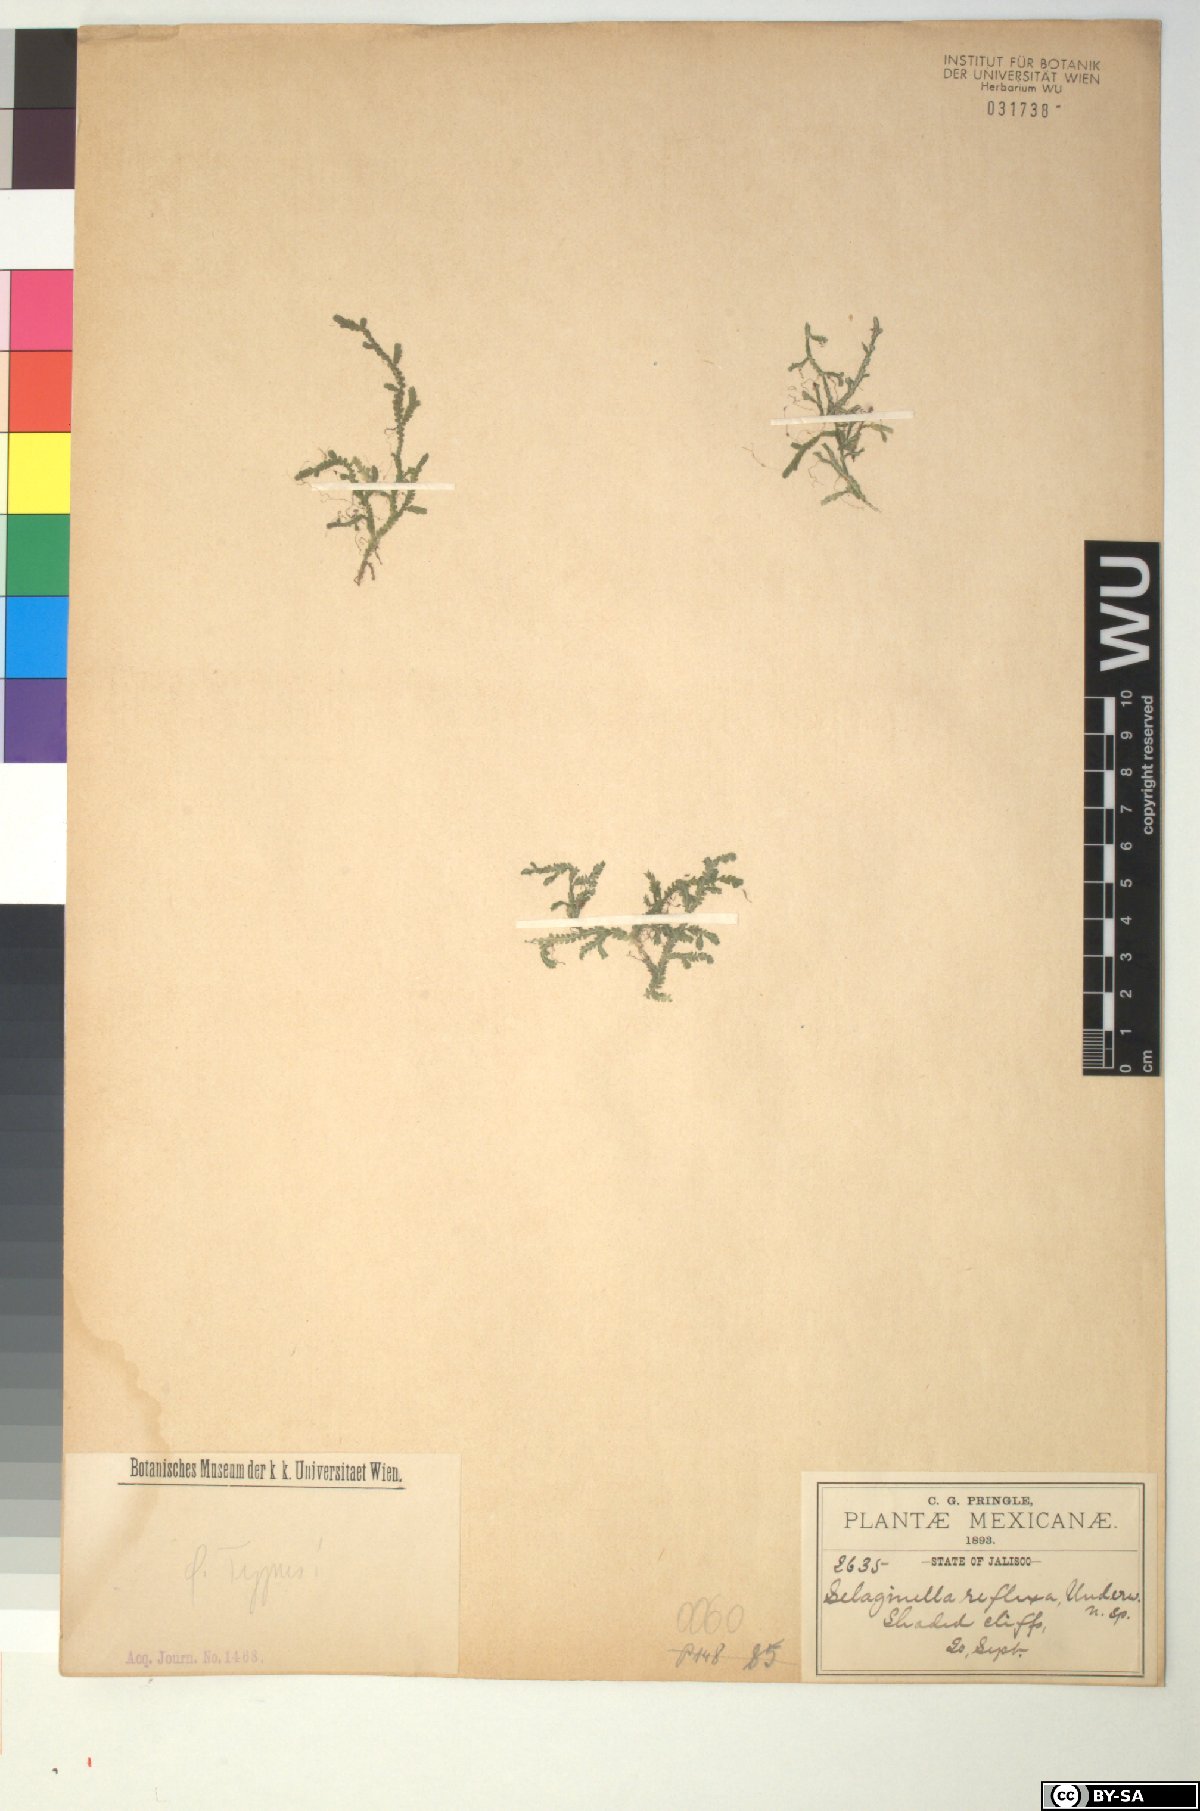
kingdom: Plantae
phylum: Tracheophyta
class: Lycopodiopsida
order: Selaginellales
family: Selaginellaceae
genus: Selaginella
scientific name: Selaginella reflexa
